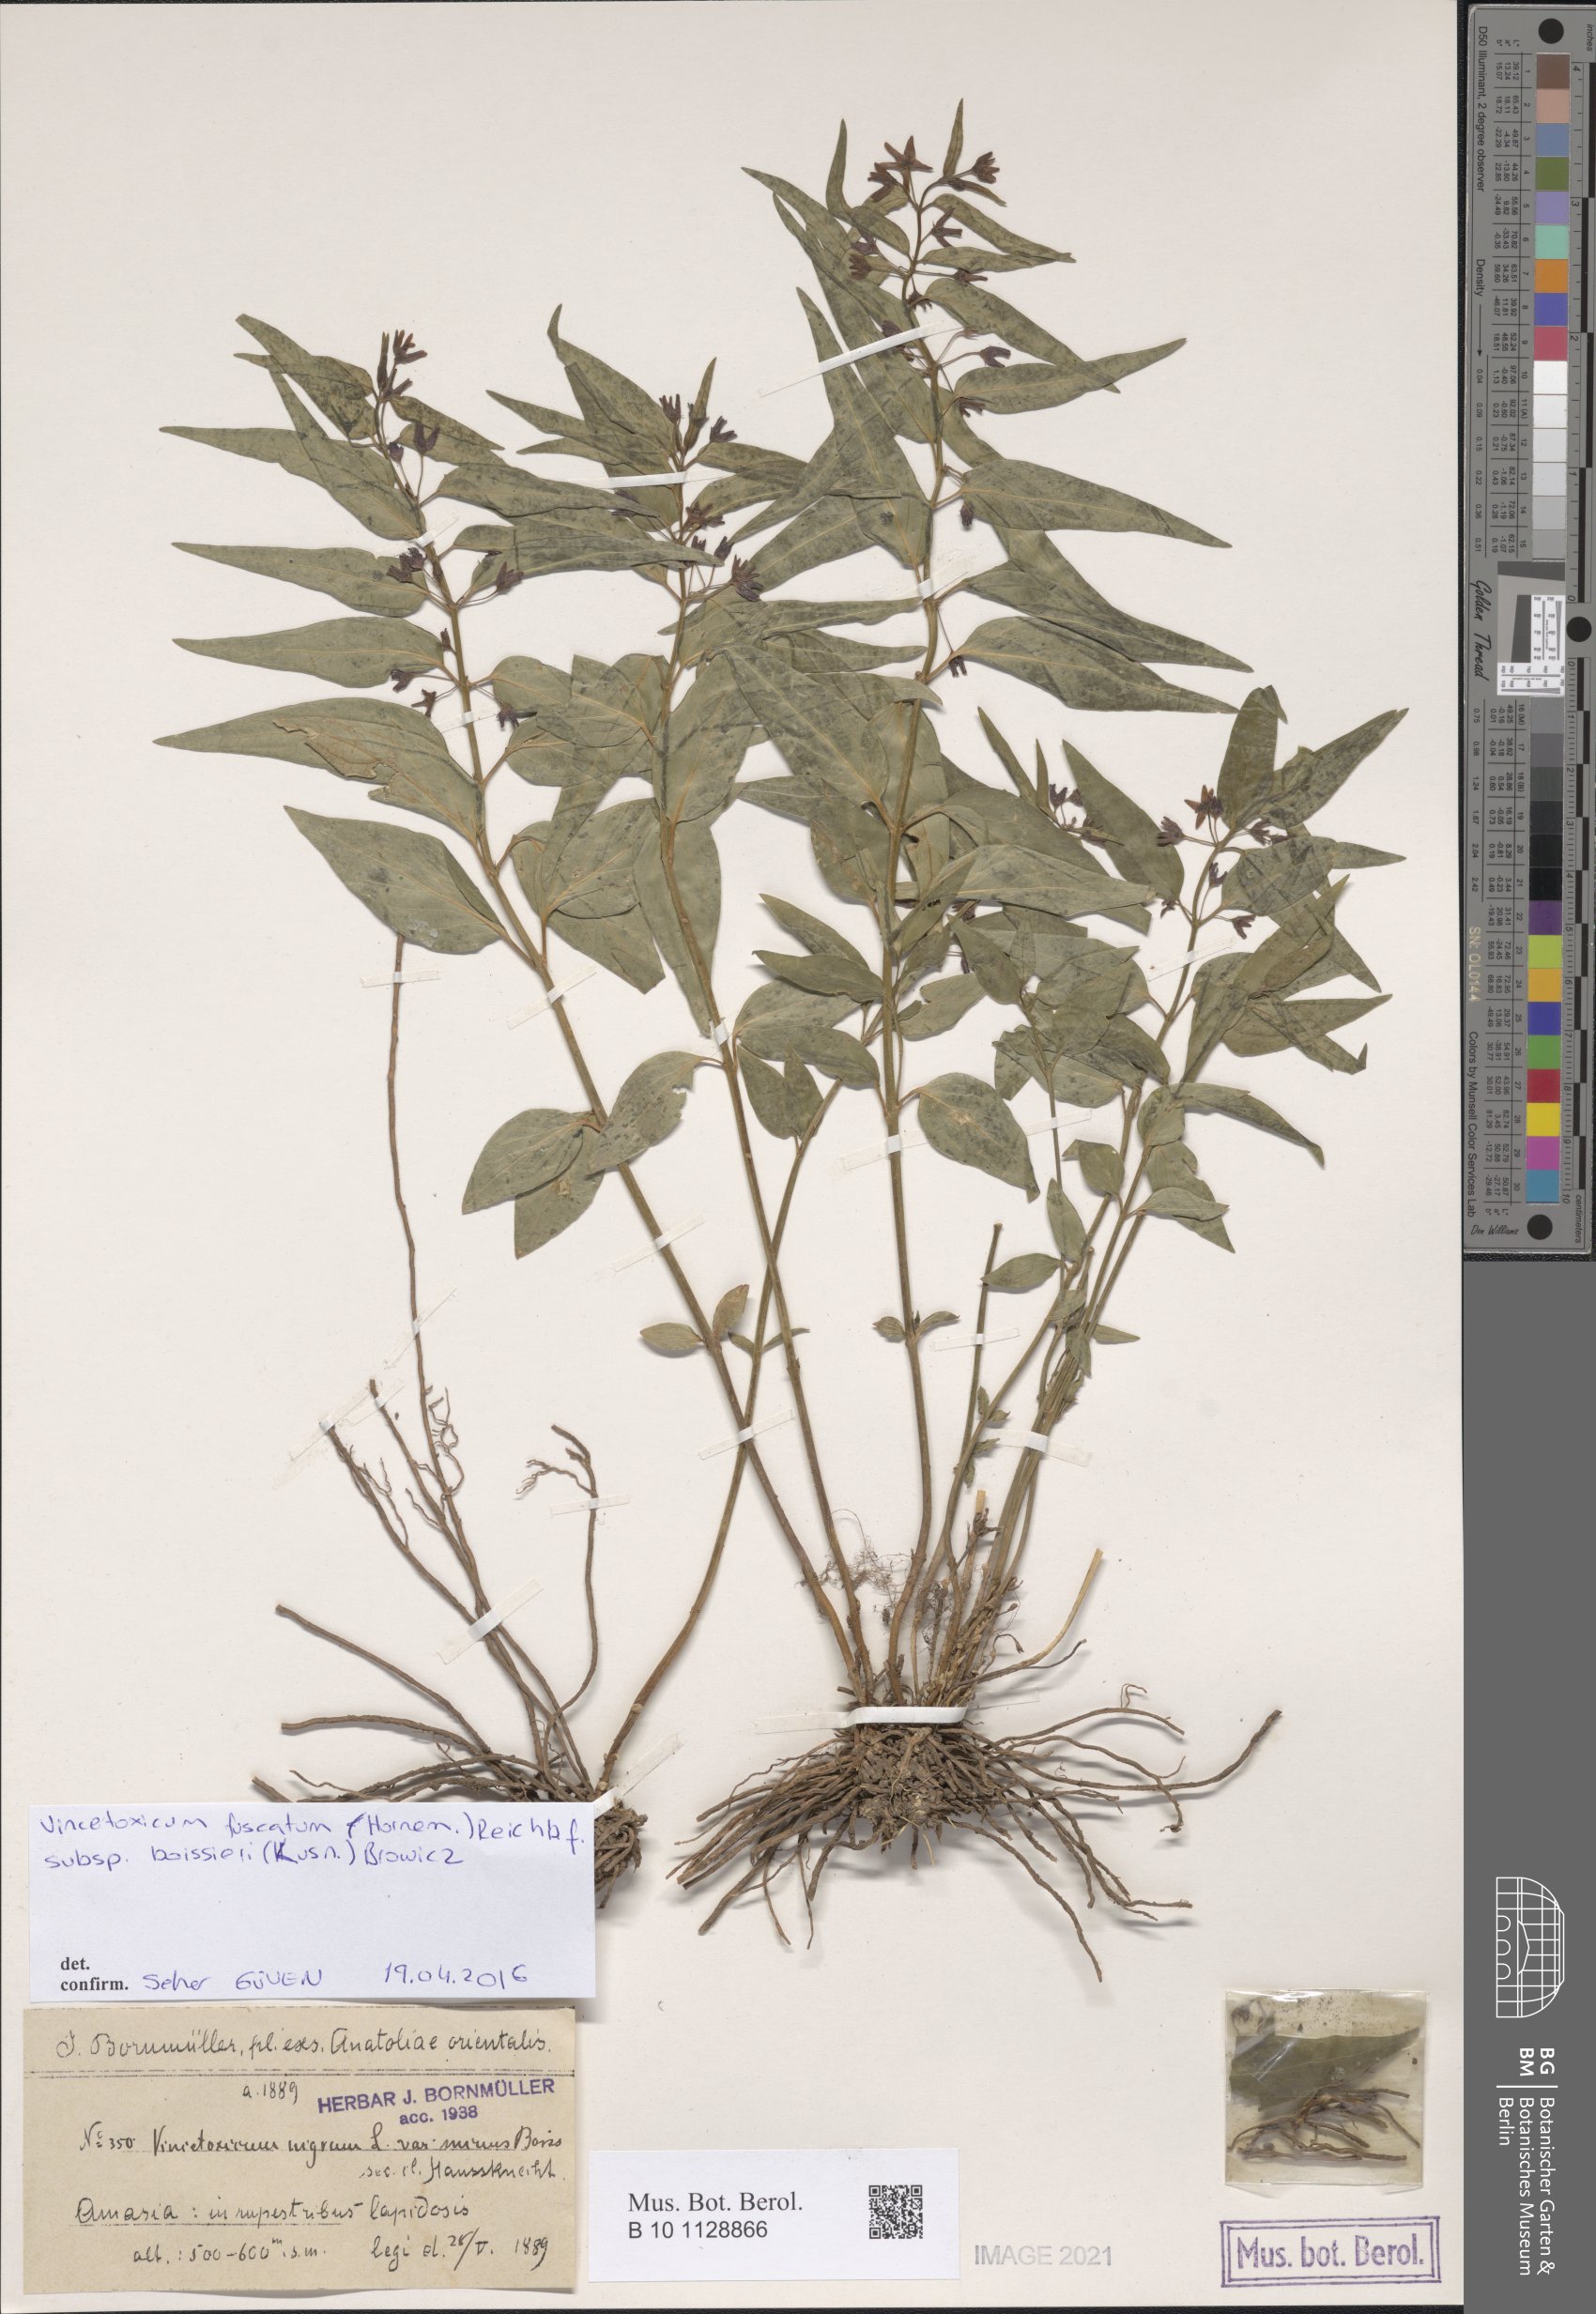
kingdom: Plantae
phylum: Tracheophyta
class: Magnoliopsida
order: Gentianales
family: Apocynaceae
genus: Vincetoxicum
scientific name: Vincetoxicum fuscatum
